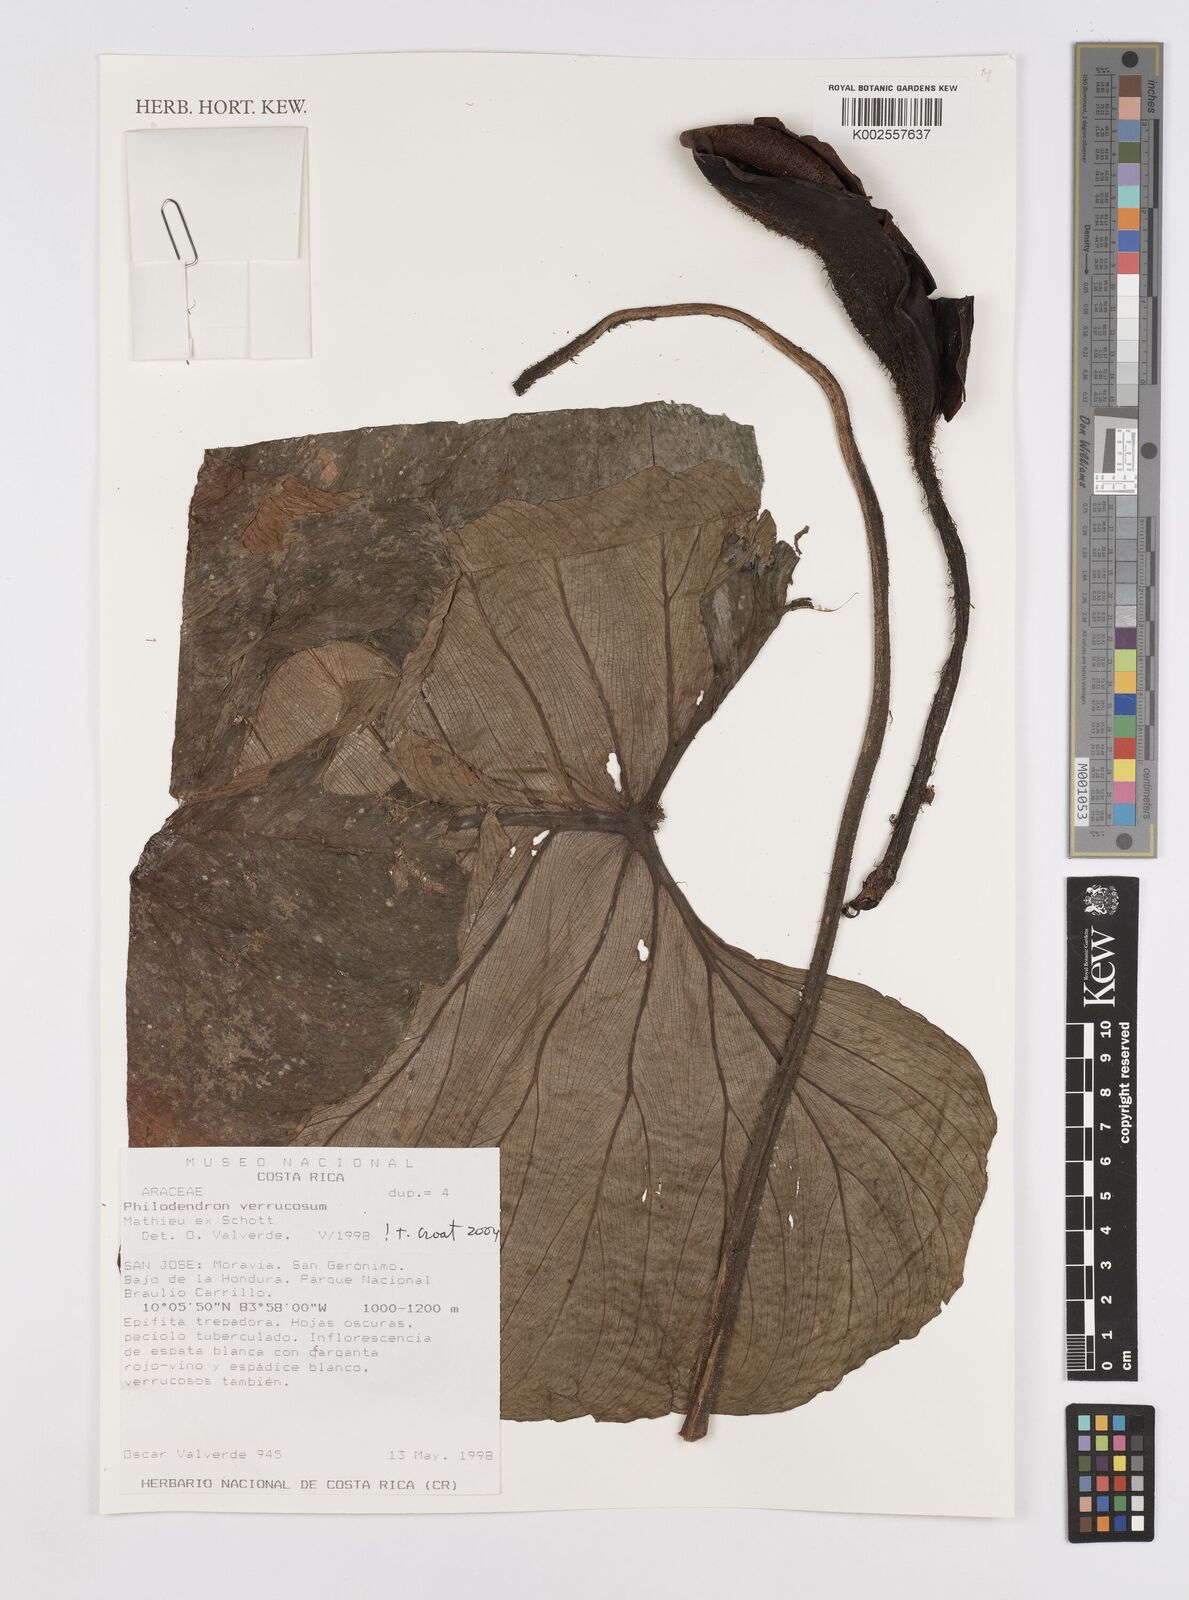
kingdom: Plantae
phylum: Tracheophyta
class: Liliopsida
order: Alismatales
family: Araceae
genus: Philodendron
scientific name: Philodendron verrucosum
